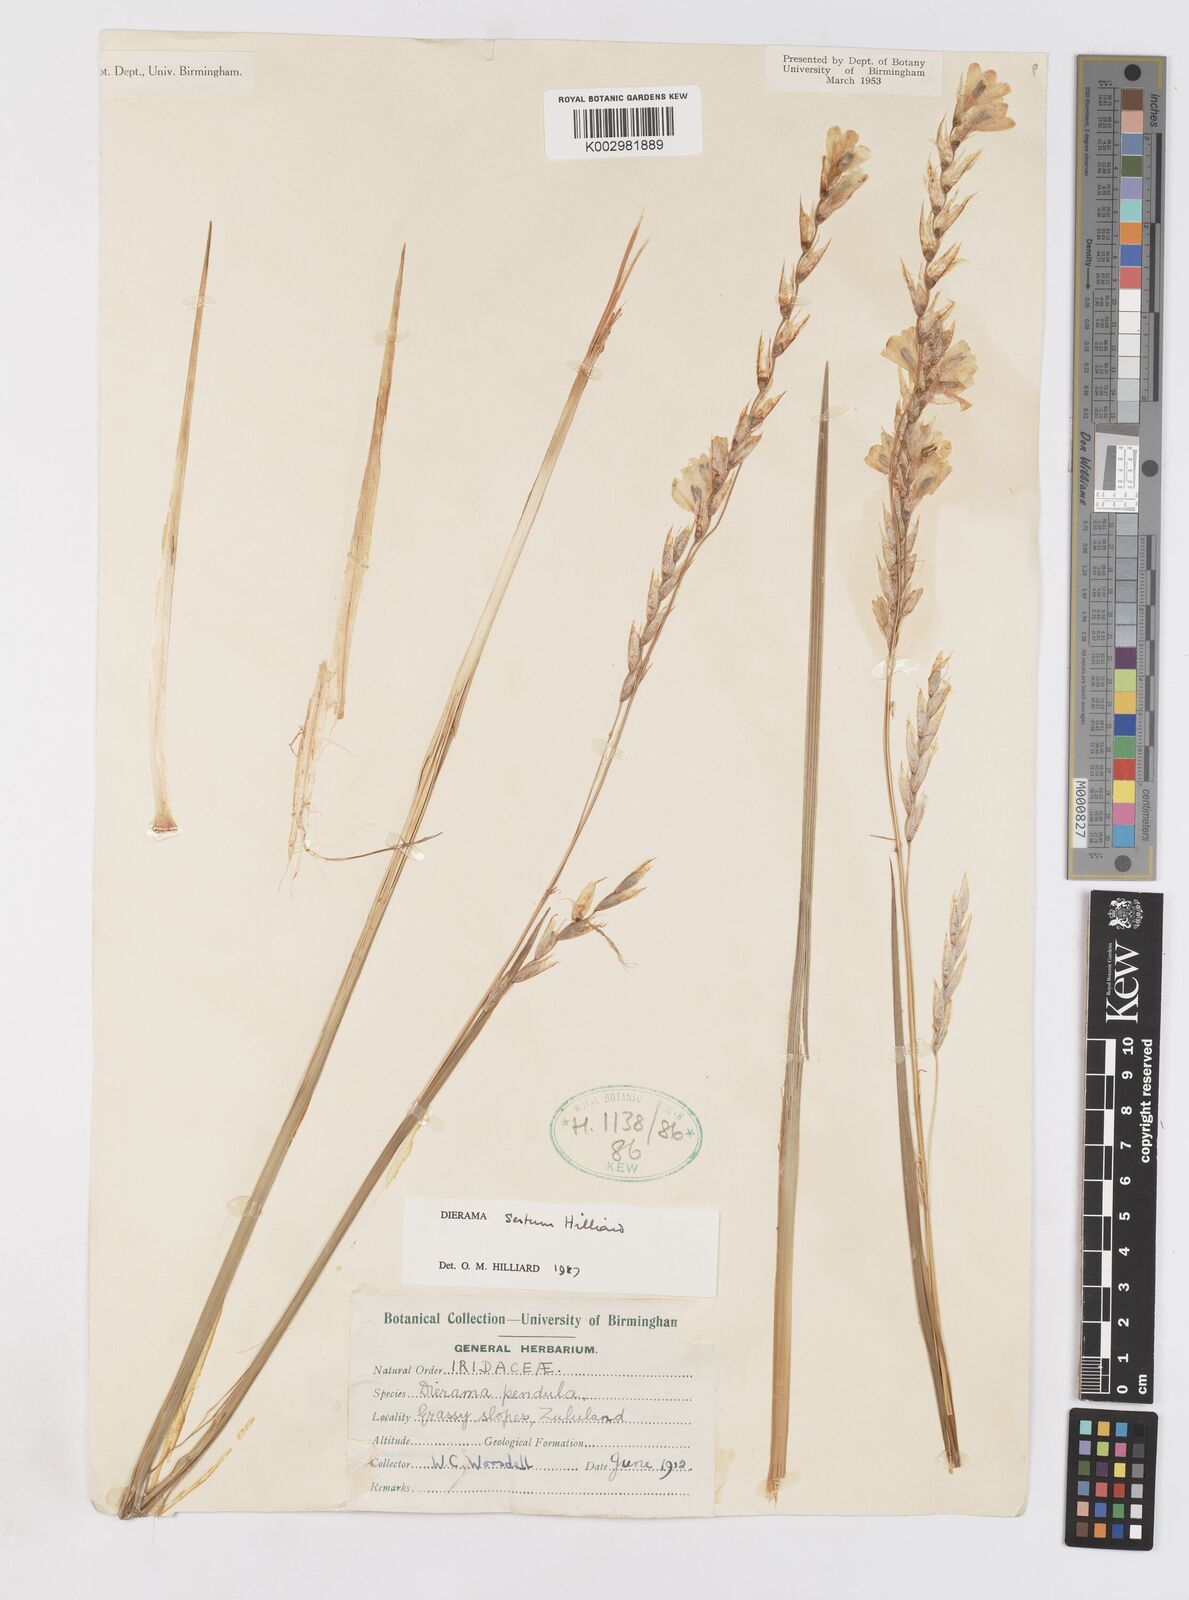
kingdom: Plantae
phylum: Tracheophyta
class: Liliopsida
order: Asparagales
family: Iridaceae
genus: Dierama
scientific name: Dierama sertum
